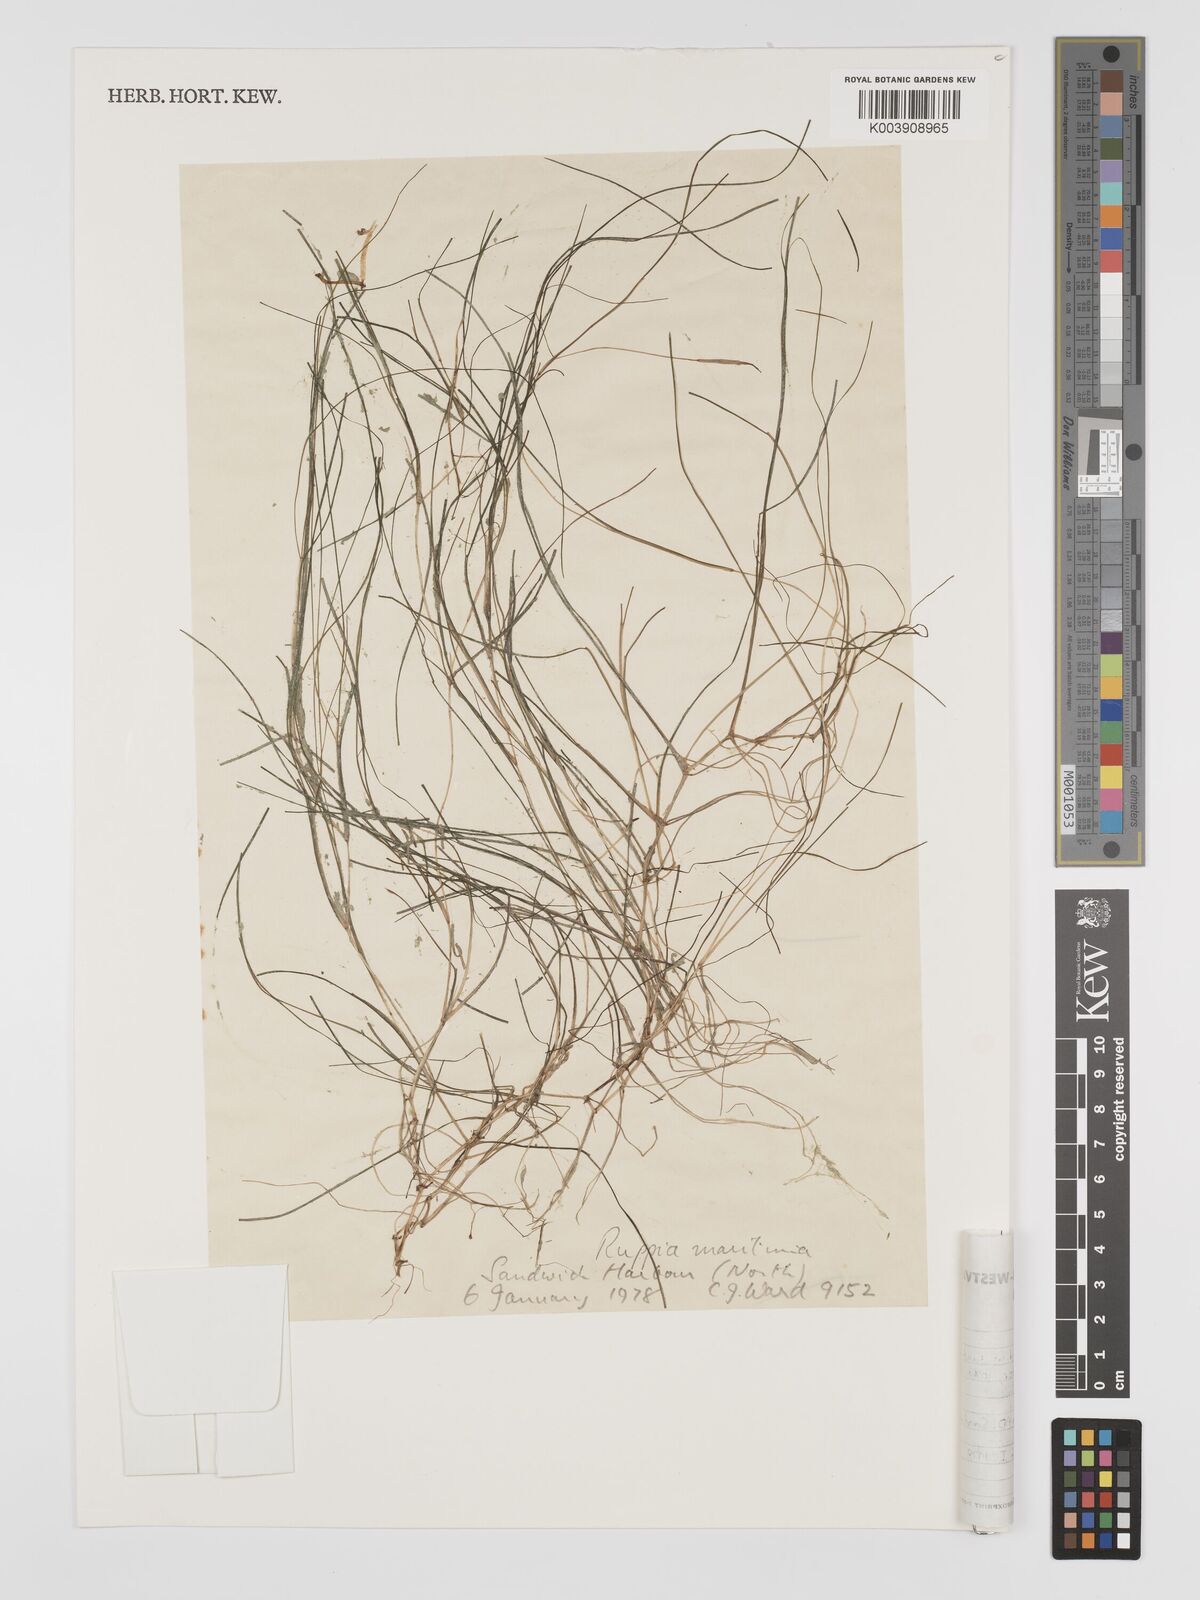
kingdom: Plantae
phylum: Tracheophyta
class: Liliopsida
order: Alismatales
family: Ruppiaceae
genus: Ruppia
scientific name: Ruppia maritima
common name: Beaked tasselweed
